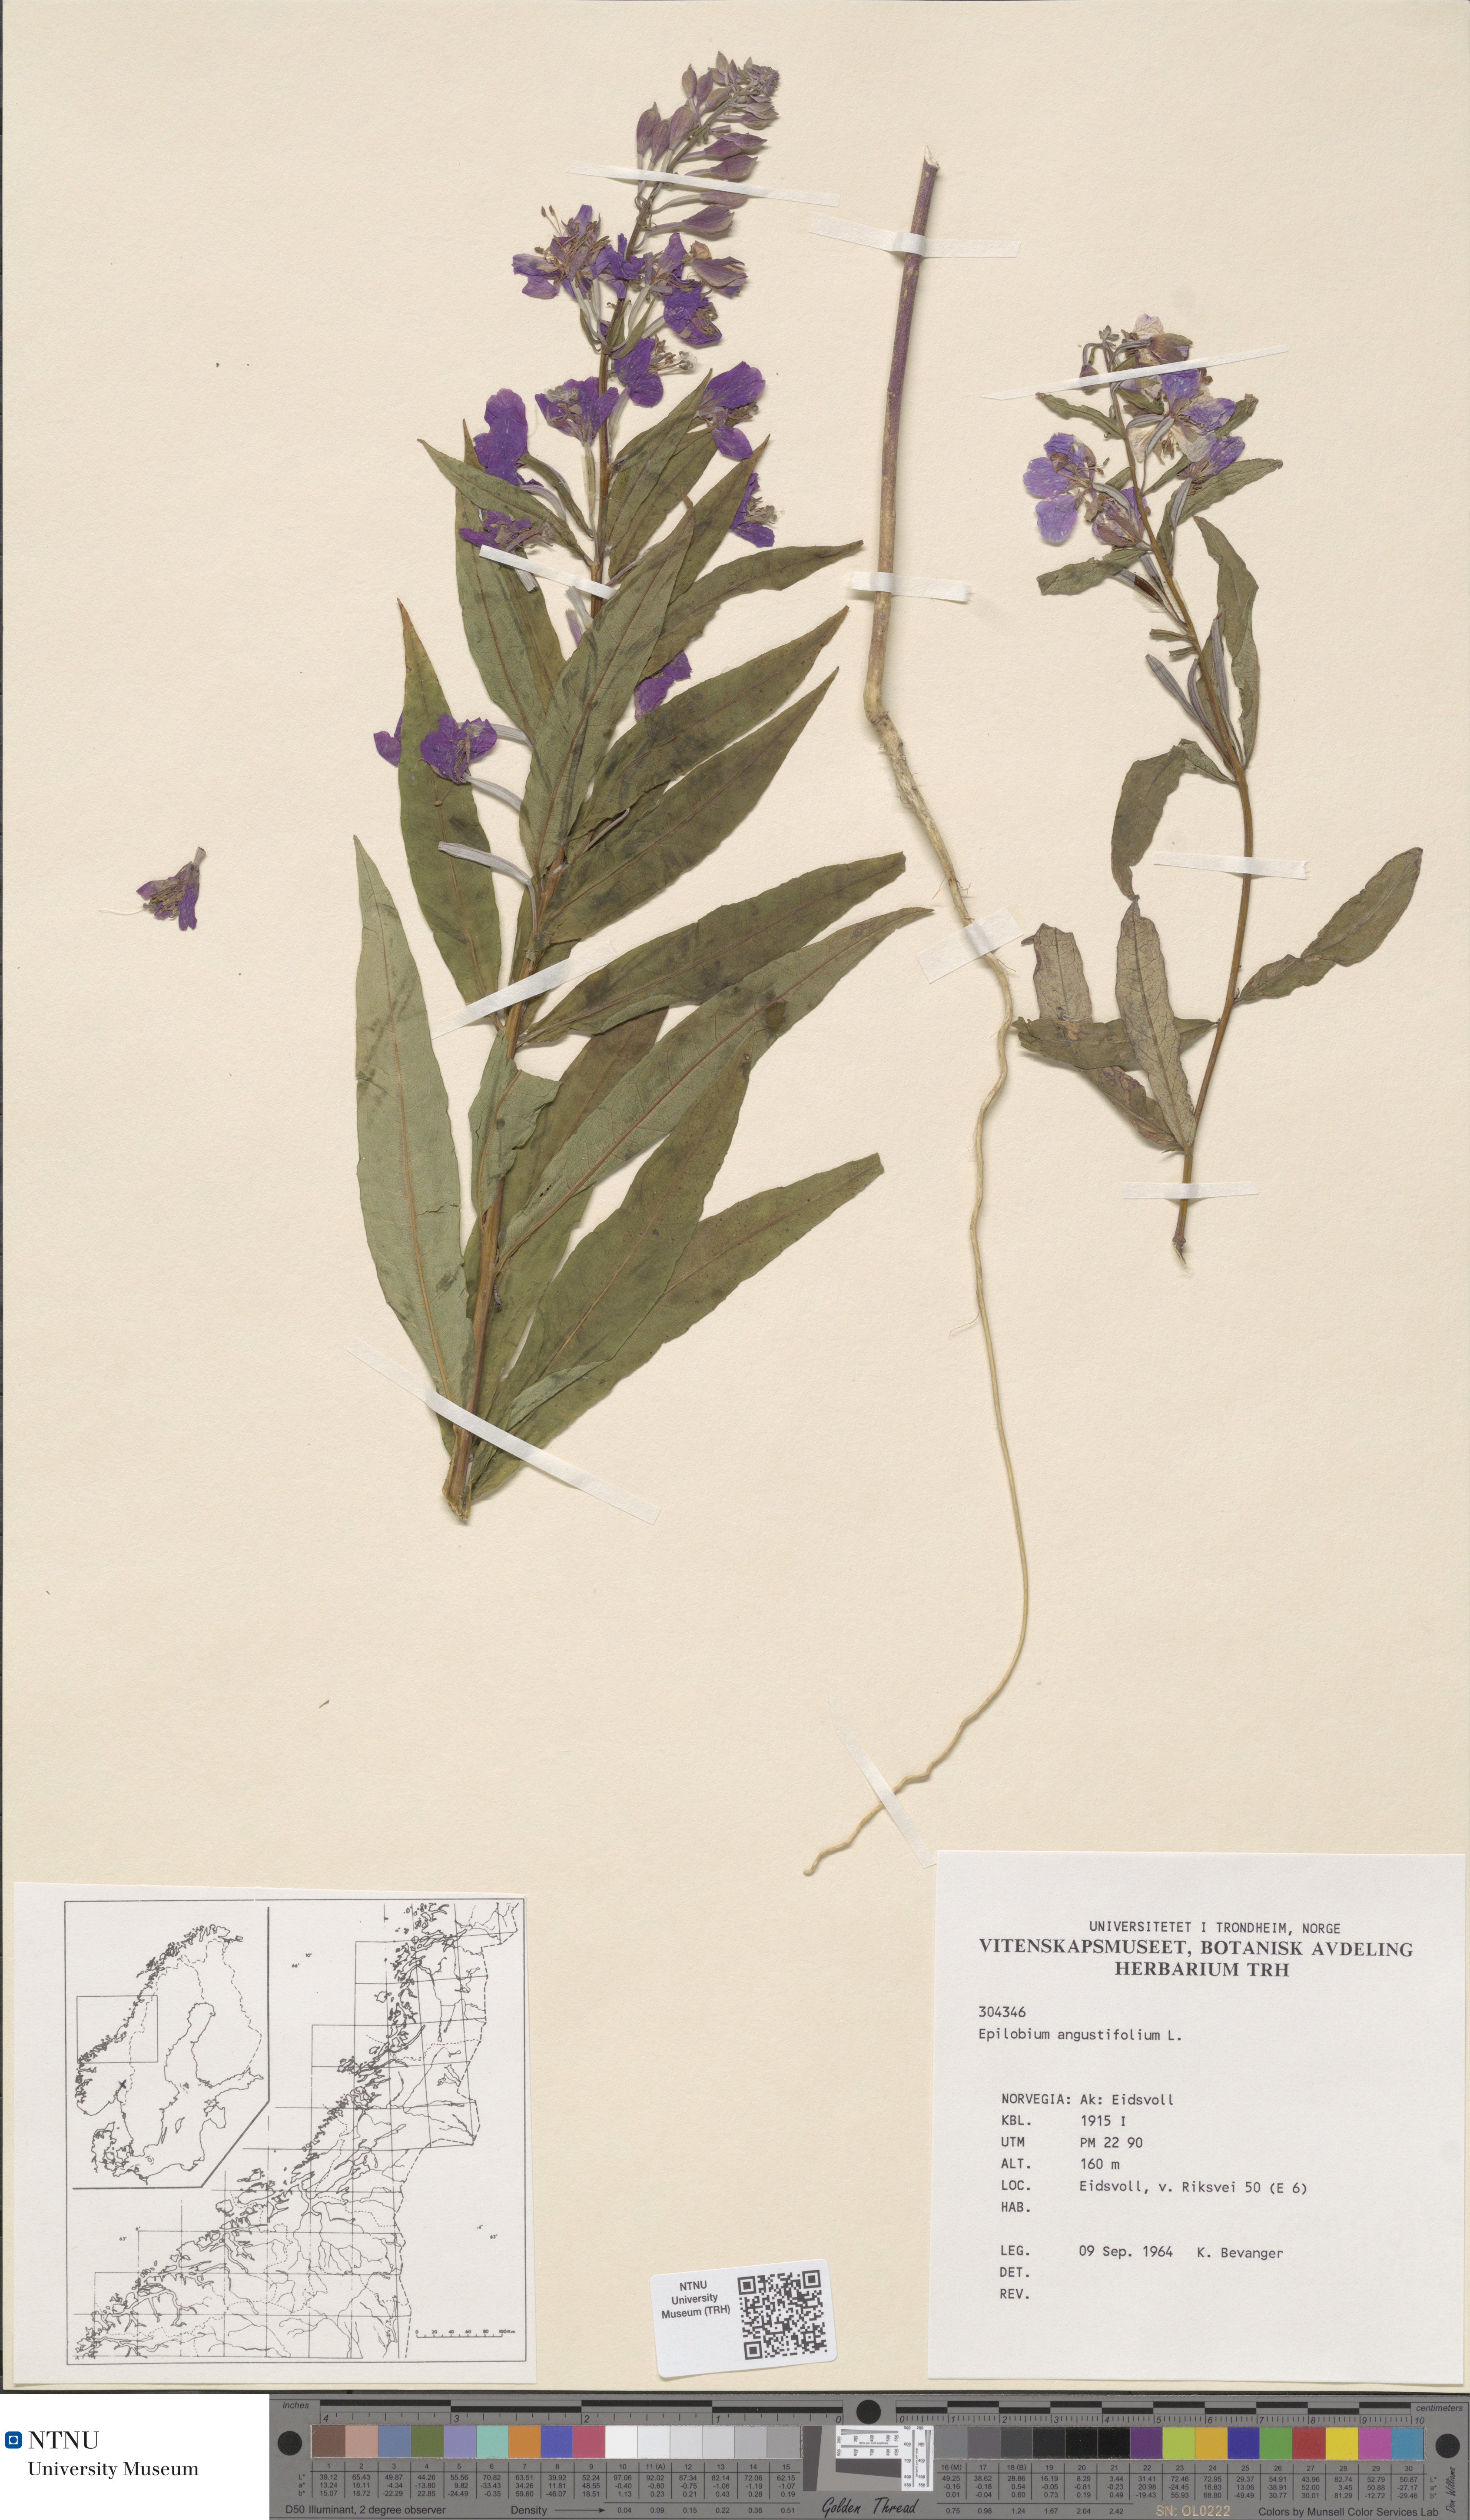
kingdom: Plantae
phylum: Tracheophyta
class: Magnoliopsida
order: Myrtales
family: Onagraceae
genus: Chamaenerion
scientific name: Chamaenerion angustifolium
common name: Fireweed
